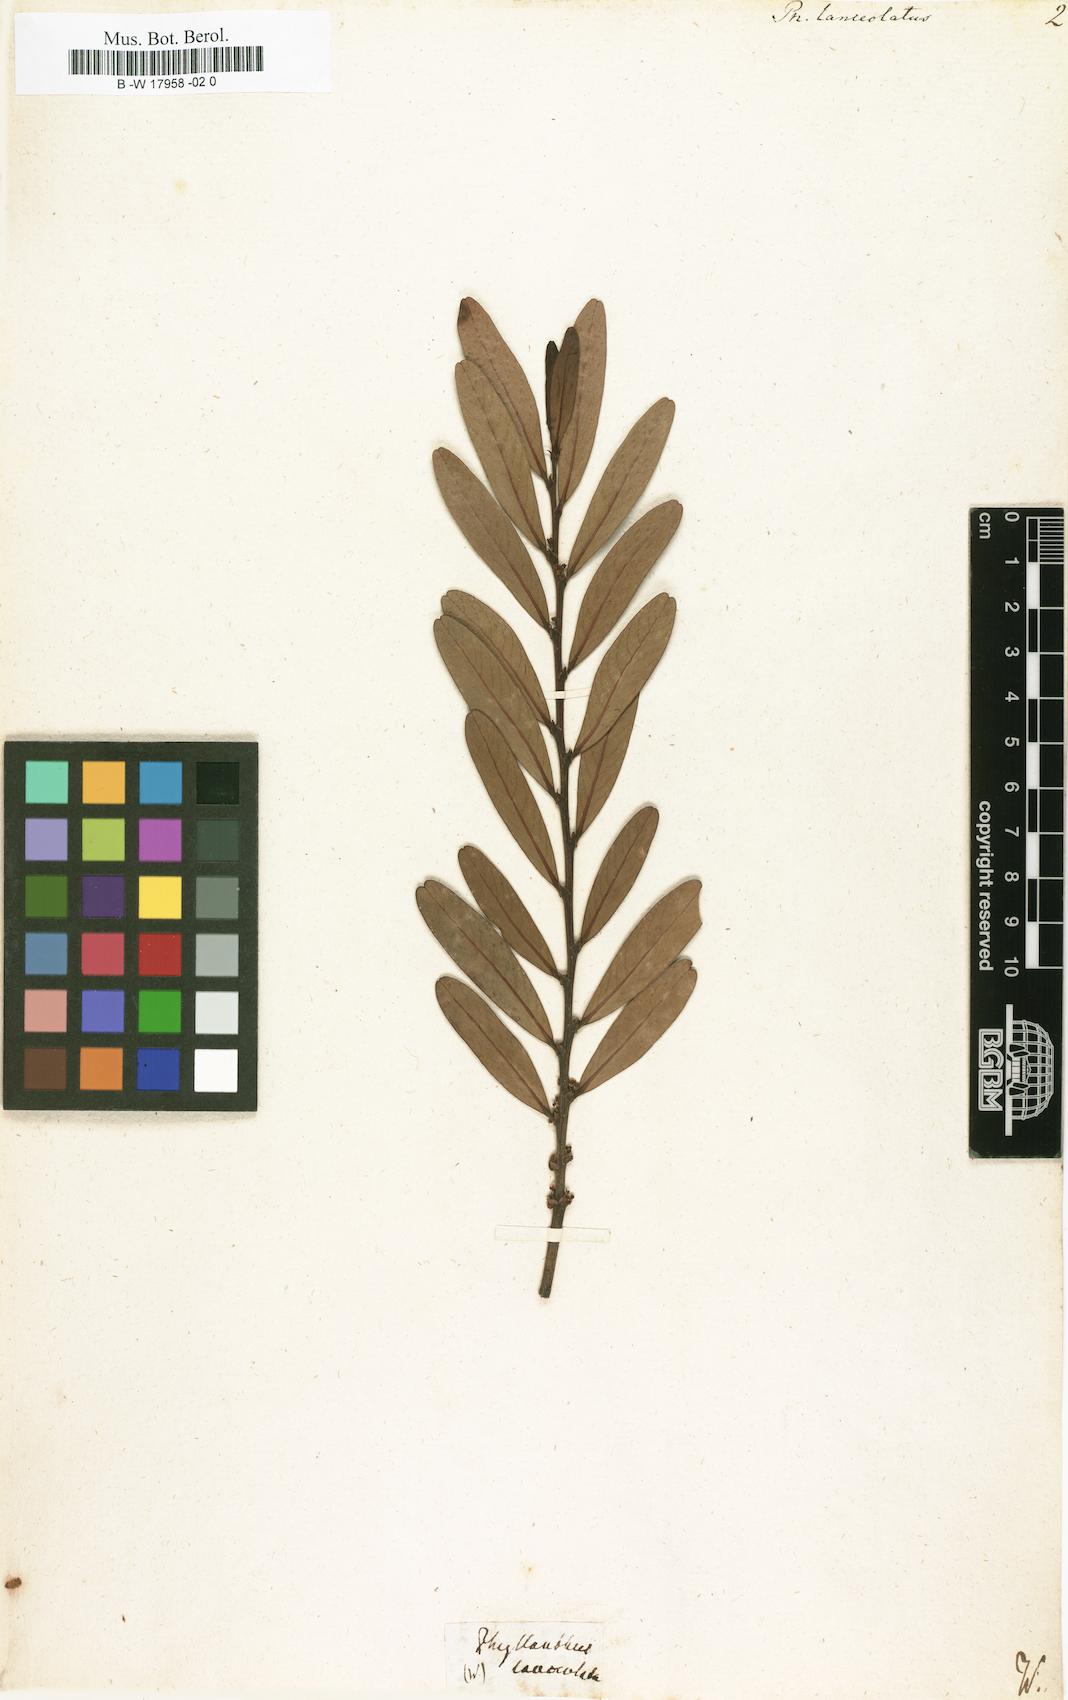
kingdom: Plantae
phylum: Tracheophyta
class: Magnoliopsida
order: Malpighiales
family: Phyllanthaceae
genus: Phyllanthus
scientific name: Phyllanthus lanceolatus
